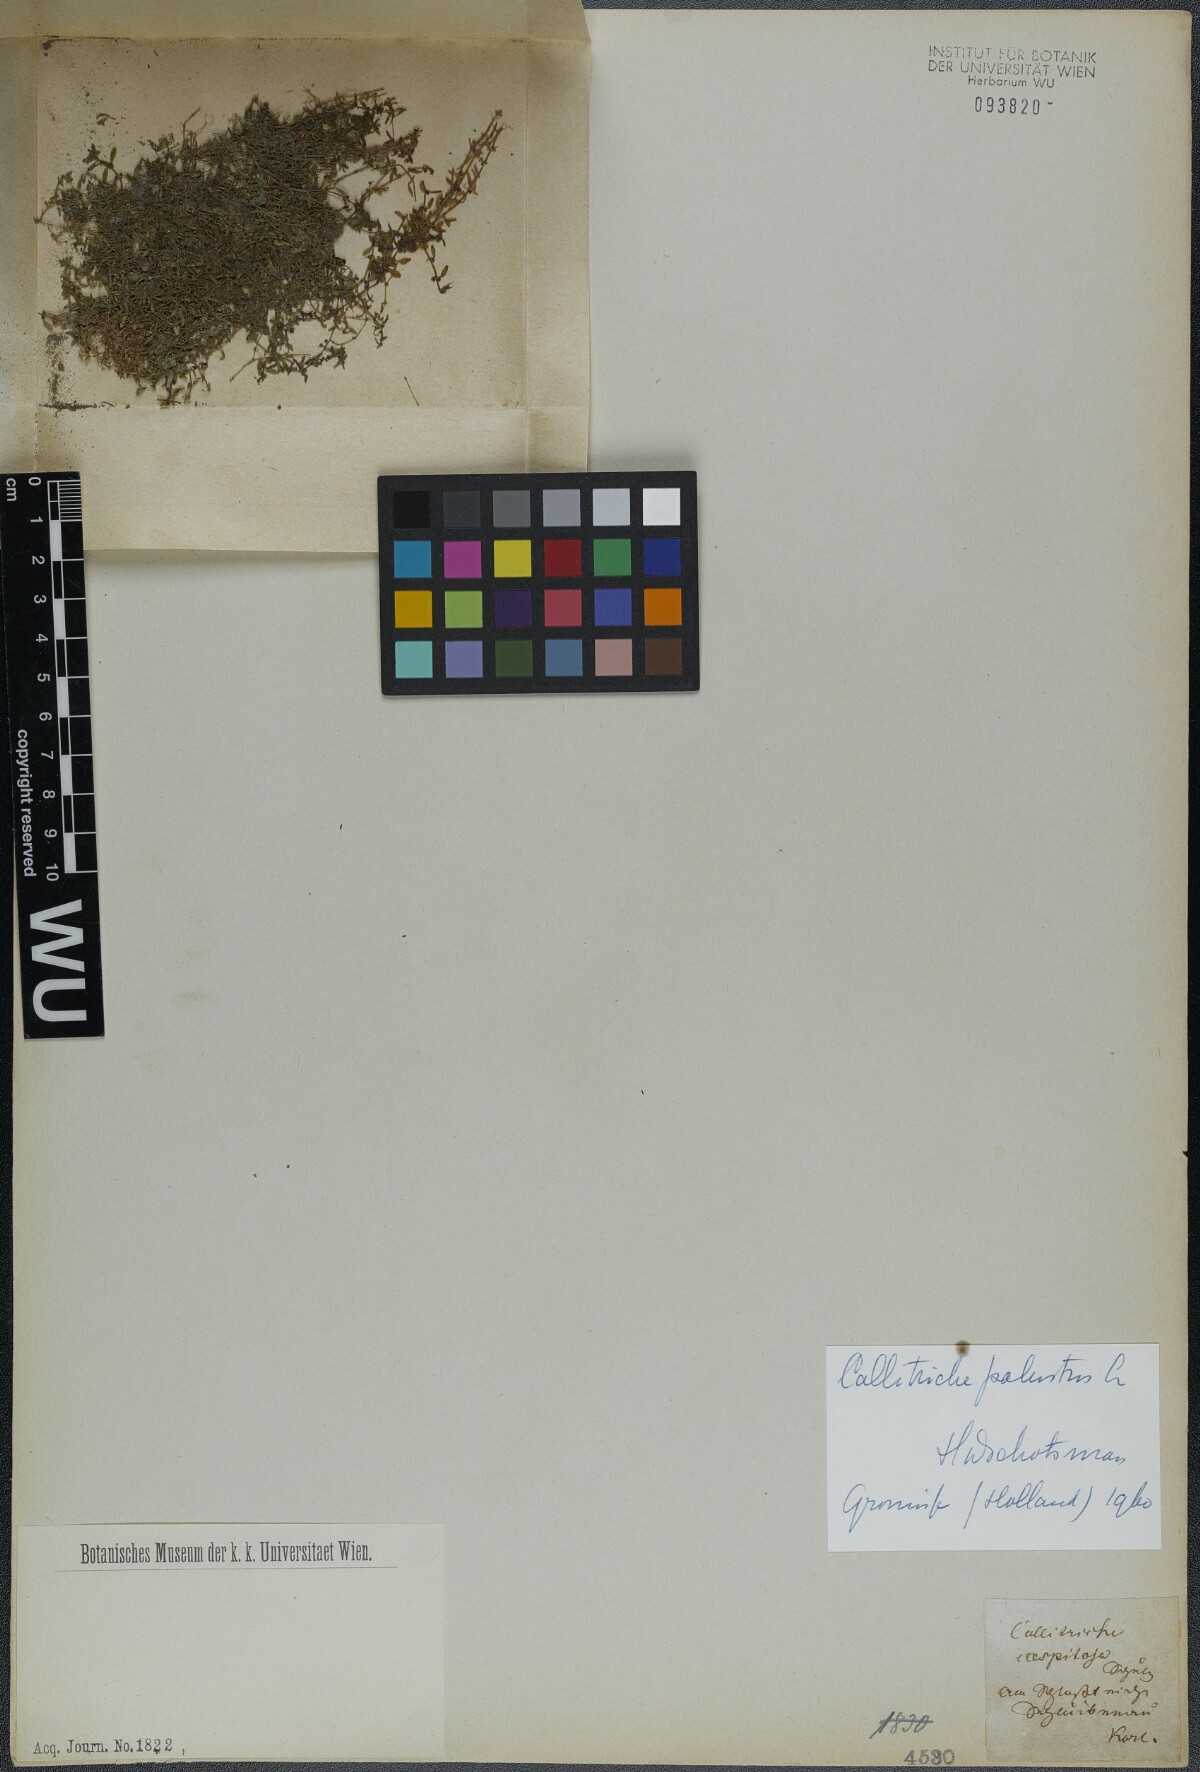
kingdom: Plantae
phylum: Tracheophyta
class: Magnoliopsida
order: Lamiales
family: Plantaginaceae
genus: Callitriche
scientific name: Callitriche palustris
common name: Spring water-starwort
